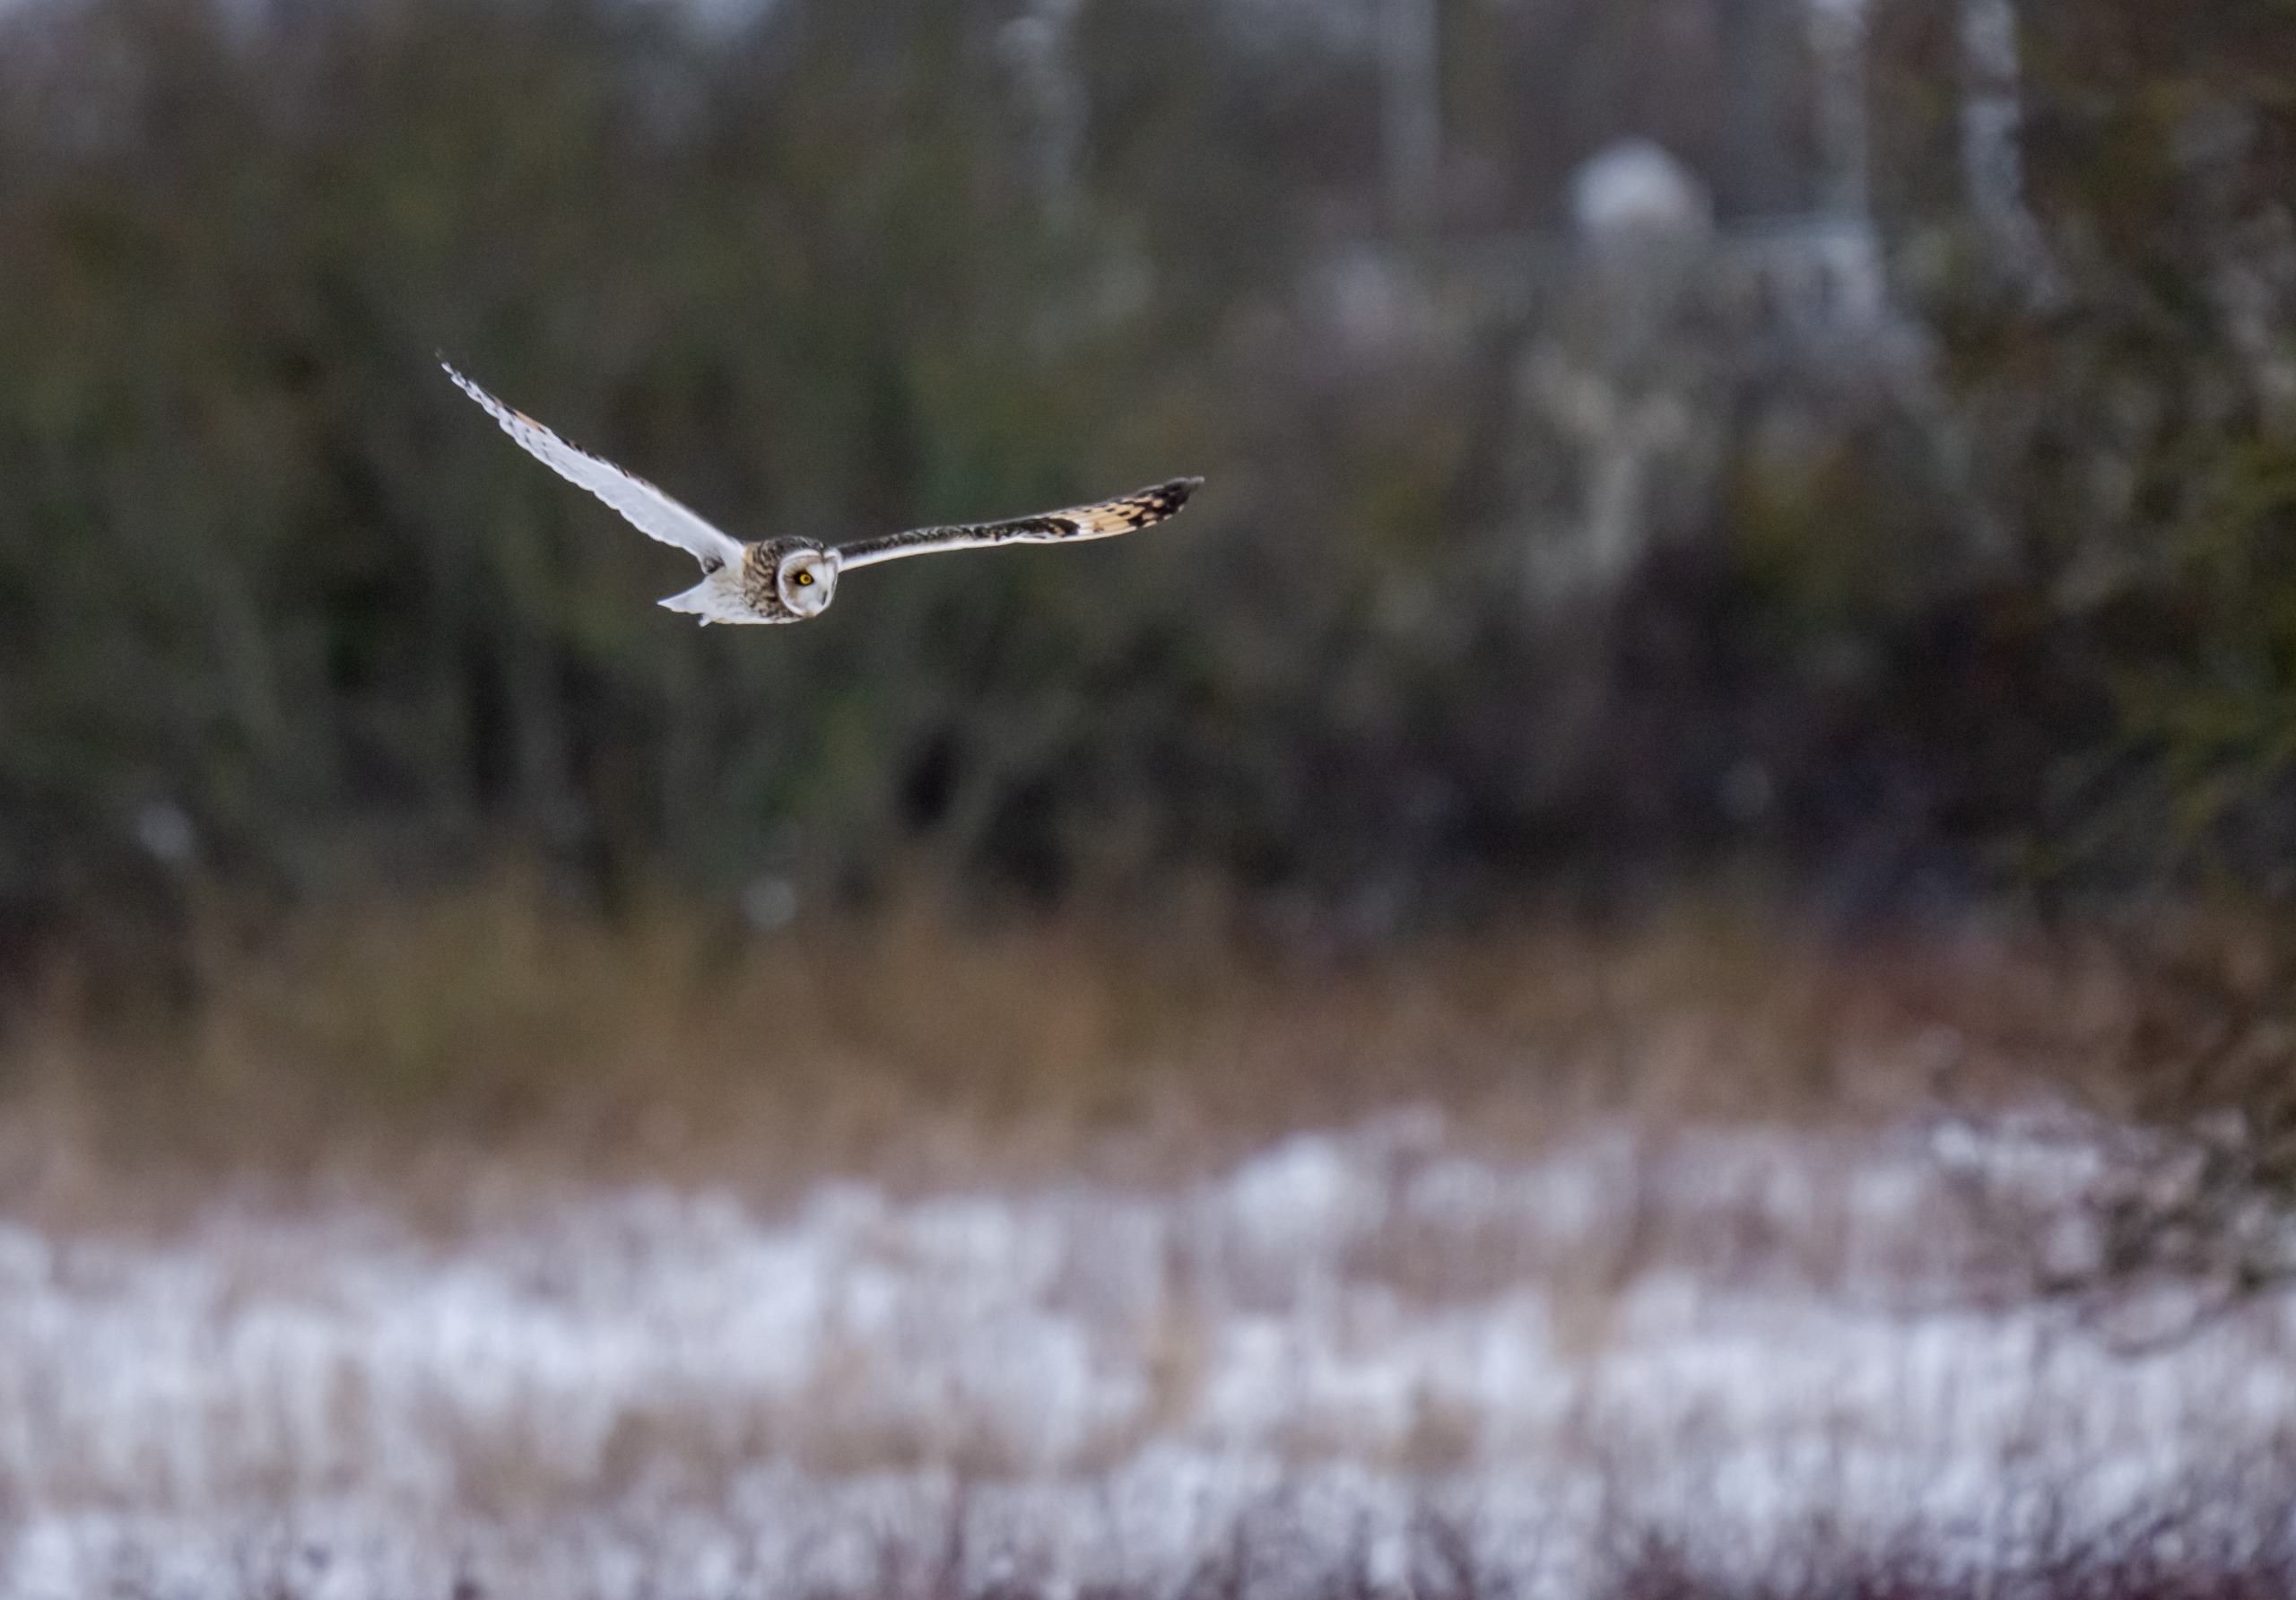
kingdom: Animalia
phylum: Chordata
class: Aves
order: Strigiformes
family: Strigidae
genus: Asio
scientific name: Asio flammeus
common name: Mosehornugle
